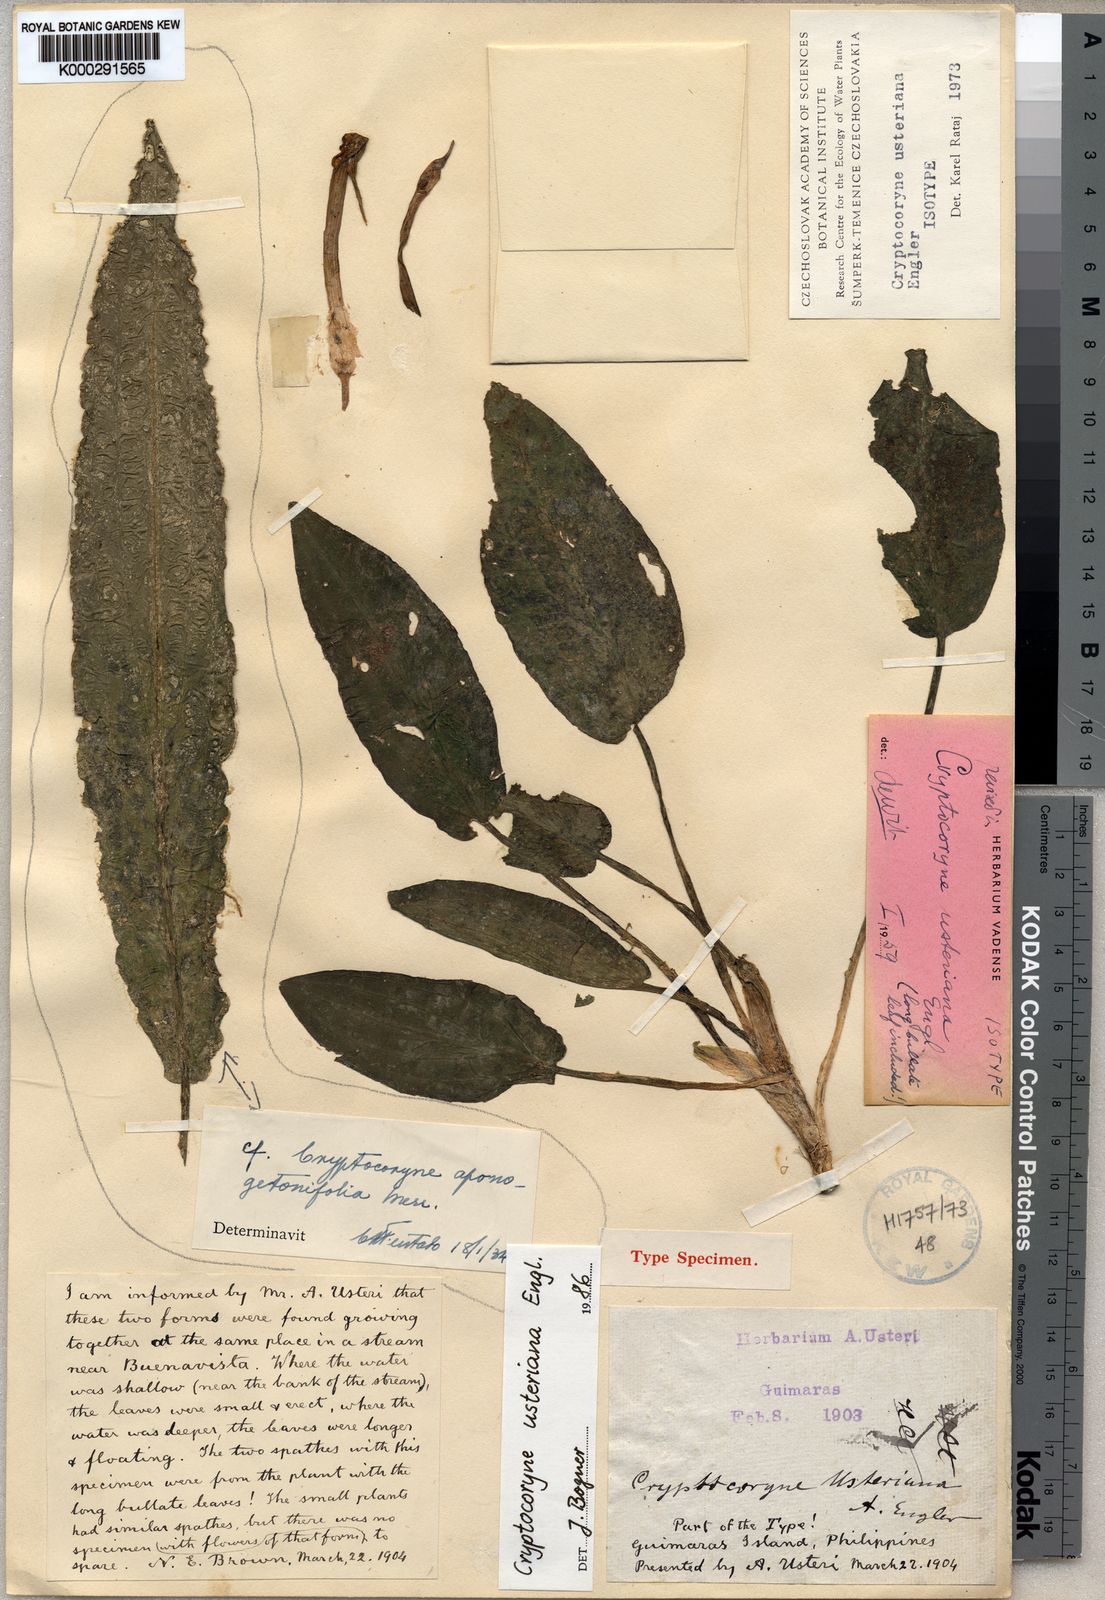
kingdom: Plantae
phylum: Tracheophyta
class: Liliopsida
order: Alismatales
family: Araceae
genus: Cryptocoryne
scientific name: Cryptocoryne usteriana
